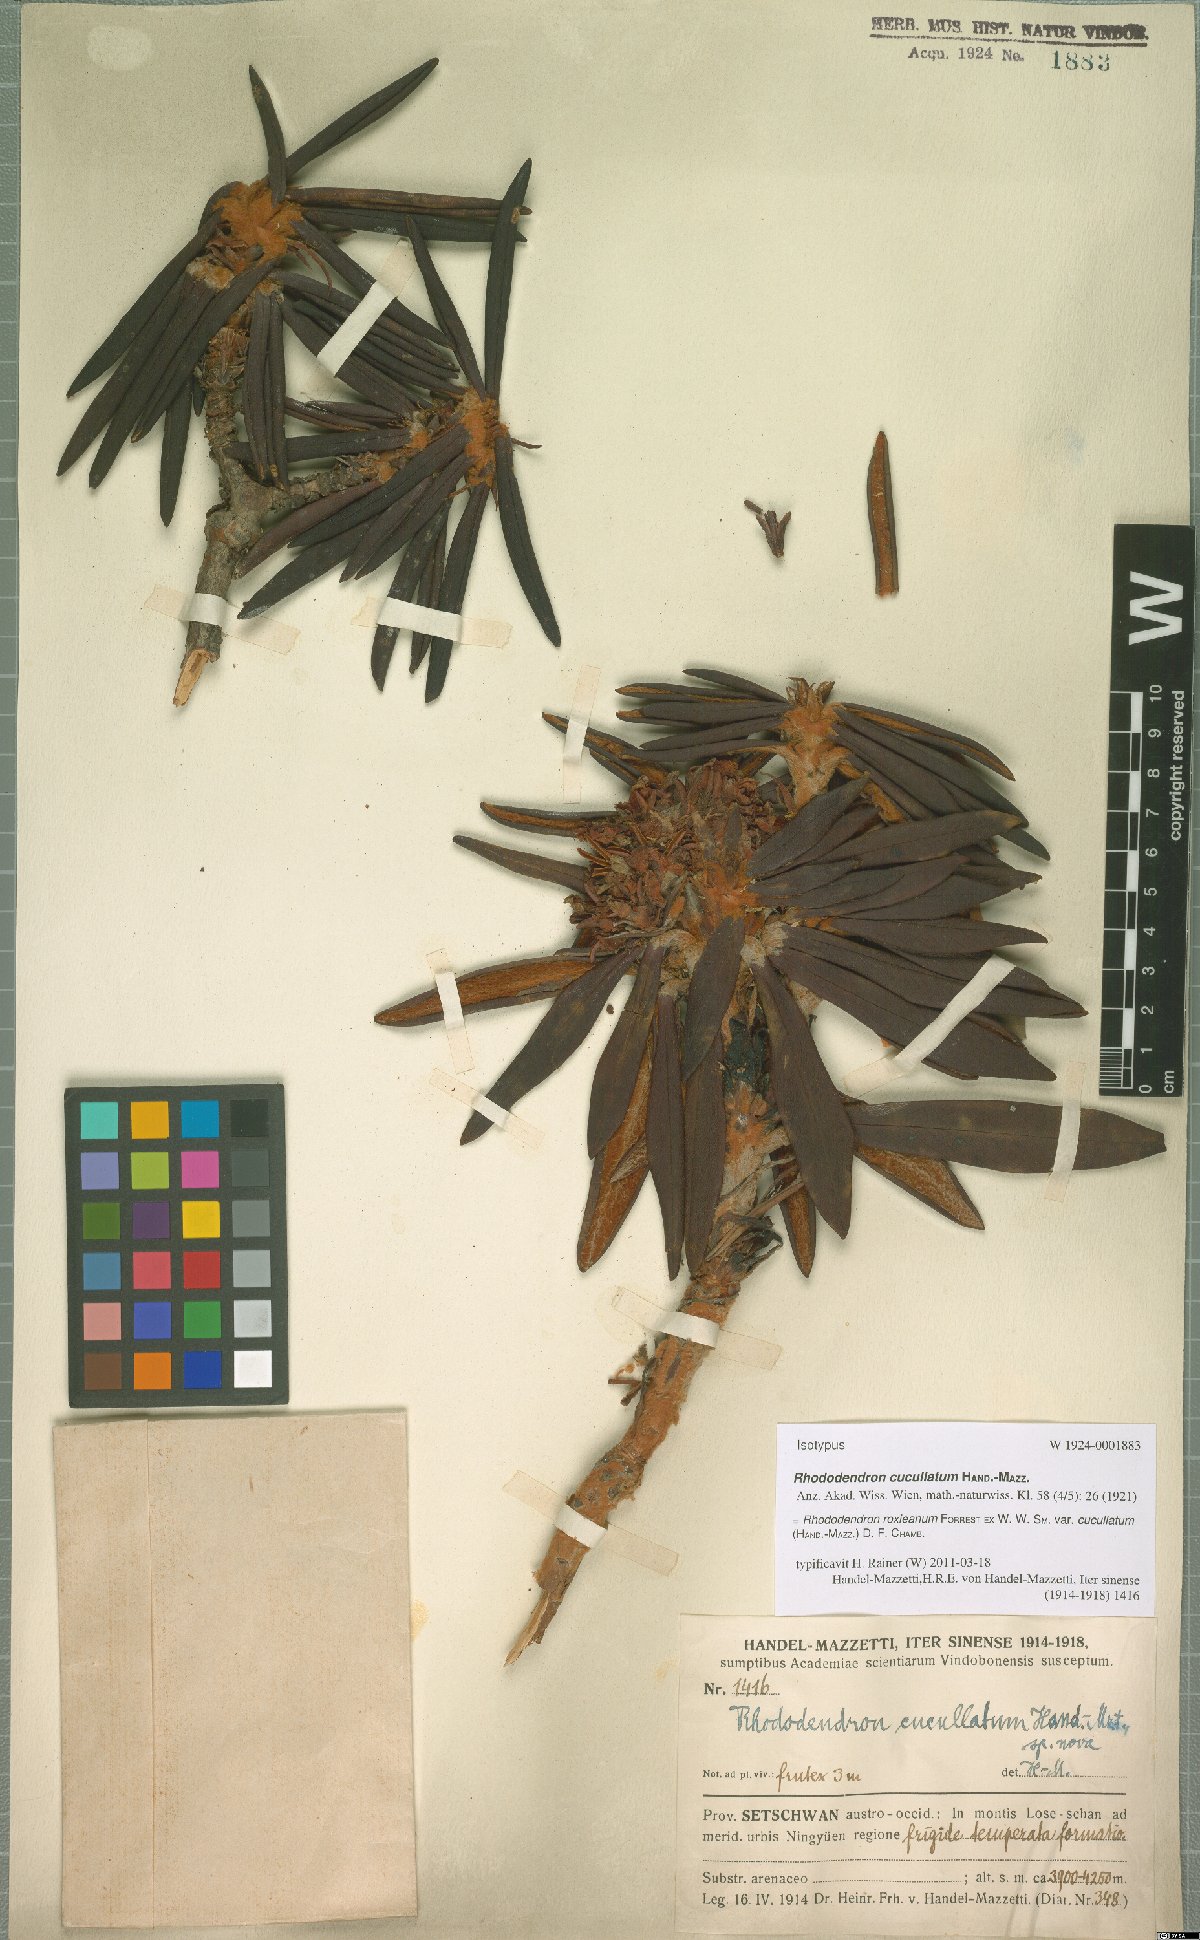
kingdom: Plantae
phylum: Tracheophyta
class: Magnoliopsida
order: Ericales
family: Ericaceae
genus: Rhododendron
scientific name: Rhododendron roxieanum
